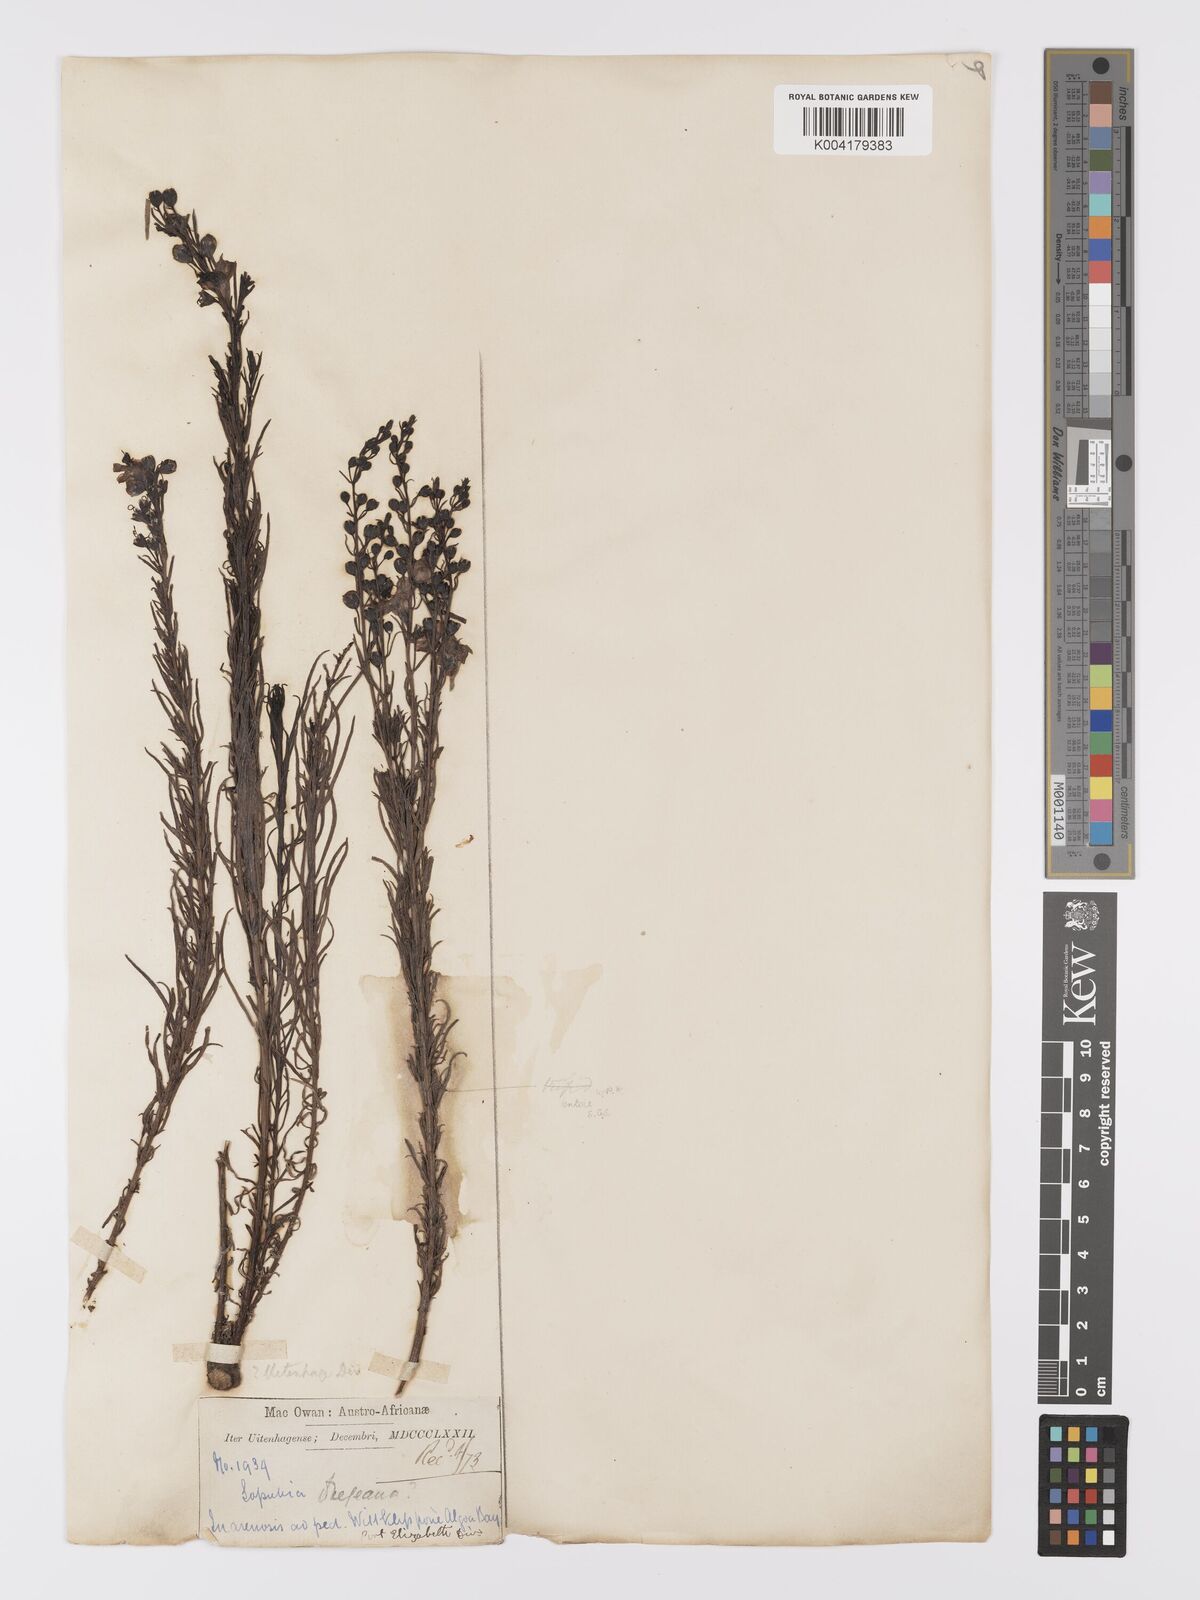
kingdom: Plantae
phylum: Tracheophyta
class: Magnoliopsida
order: Lamiales
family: Orobanchaceae
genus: Sopubia
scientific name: Sopubia simplex
